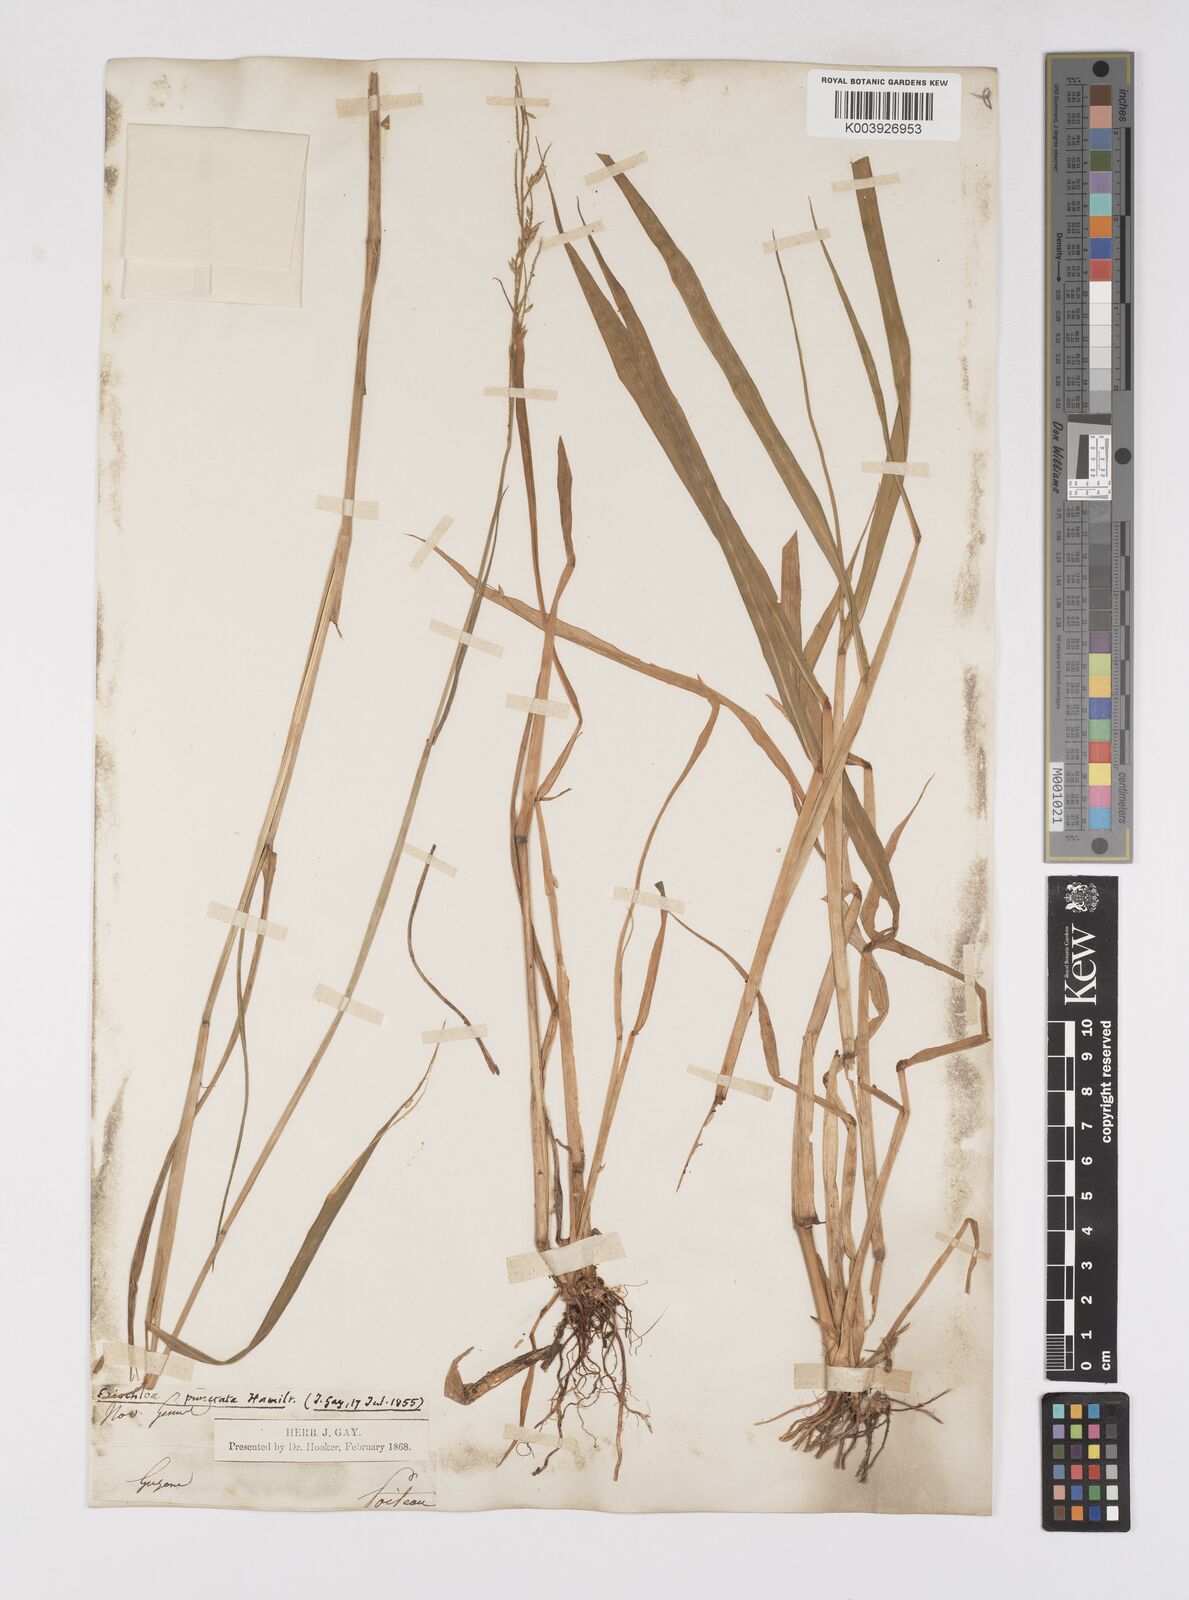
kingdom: Plantae
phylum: Tracheophyta
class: Liliopsida
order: Poales
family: Poaceae
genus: Eriochloa
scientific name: Eriochloa punctata
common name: Louisiana cupgrass
